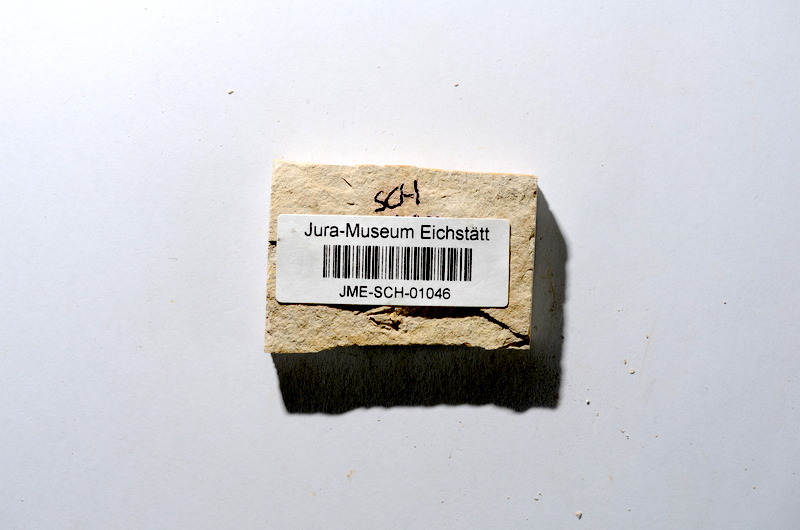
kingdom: Animalia
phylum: Chordata
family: Ascalaboidae
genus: Tharsis
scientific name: Tharsis dubius
